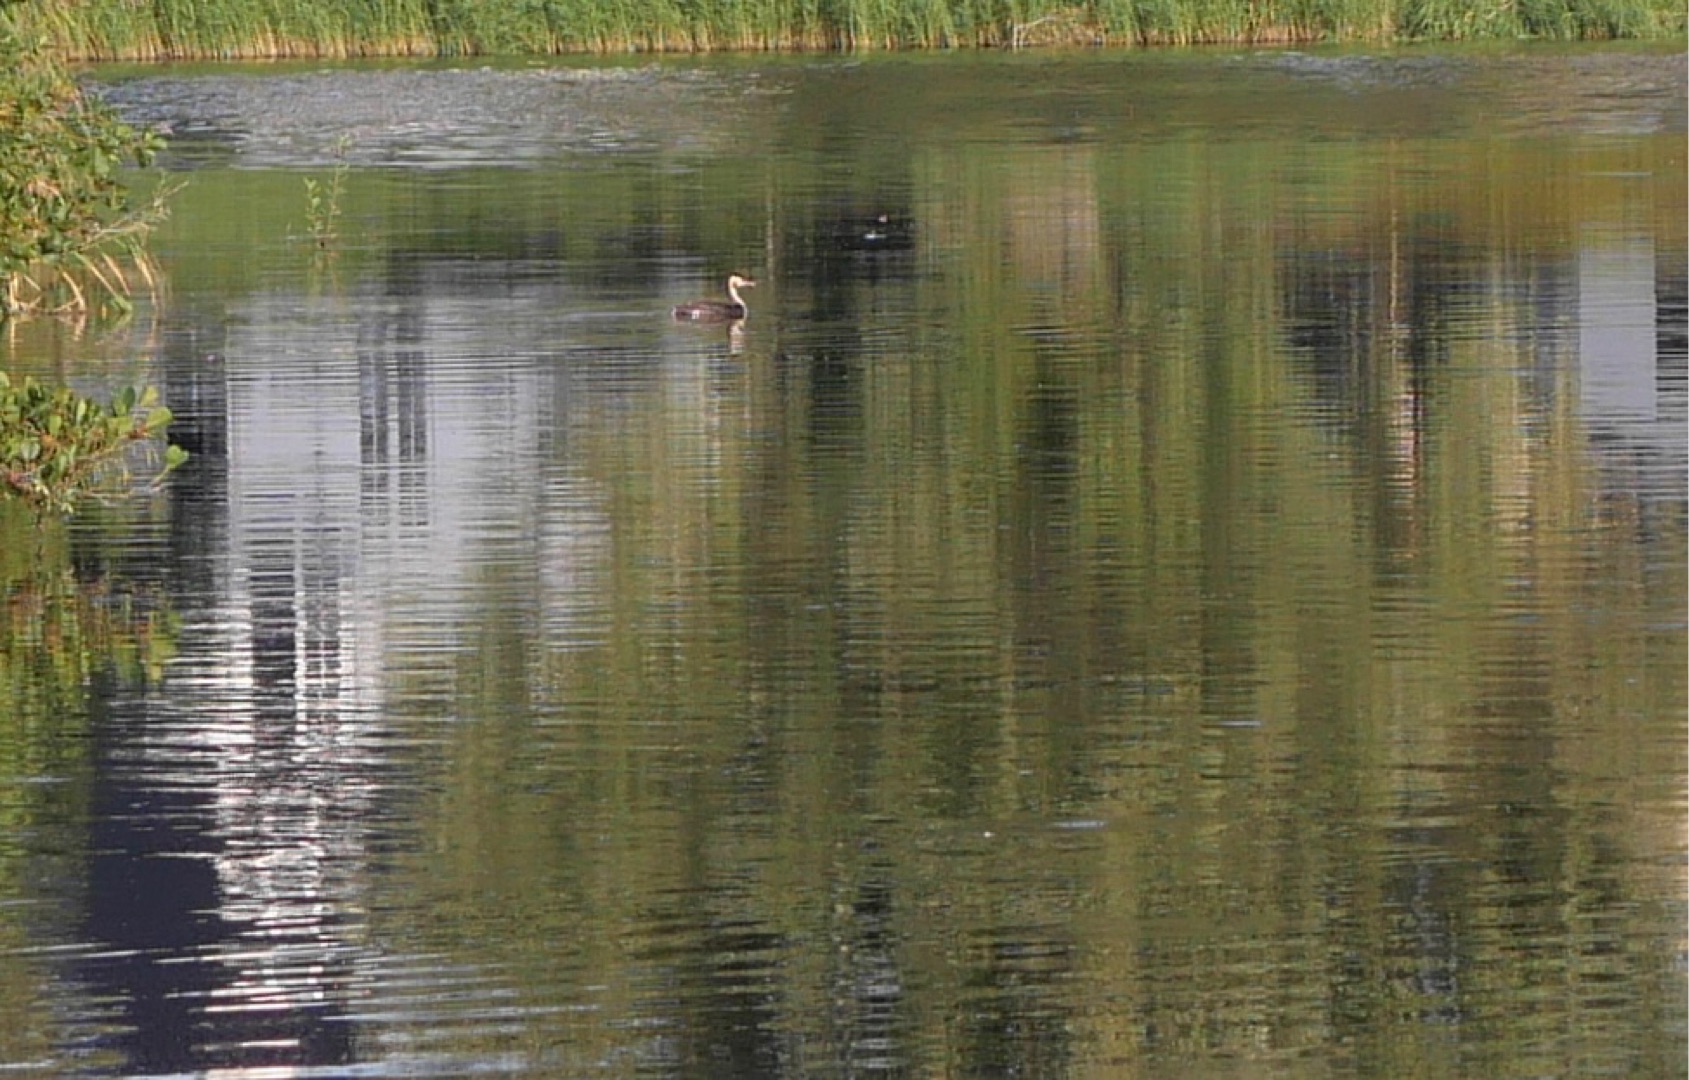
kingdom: Animalia
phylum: Chordata
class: Aves
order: Podicipediformes
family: Podicipedidae
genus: Podiceps
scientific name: Podiceps cristatus
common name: Toppet lappedykker
